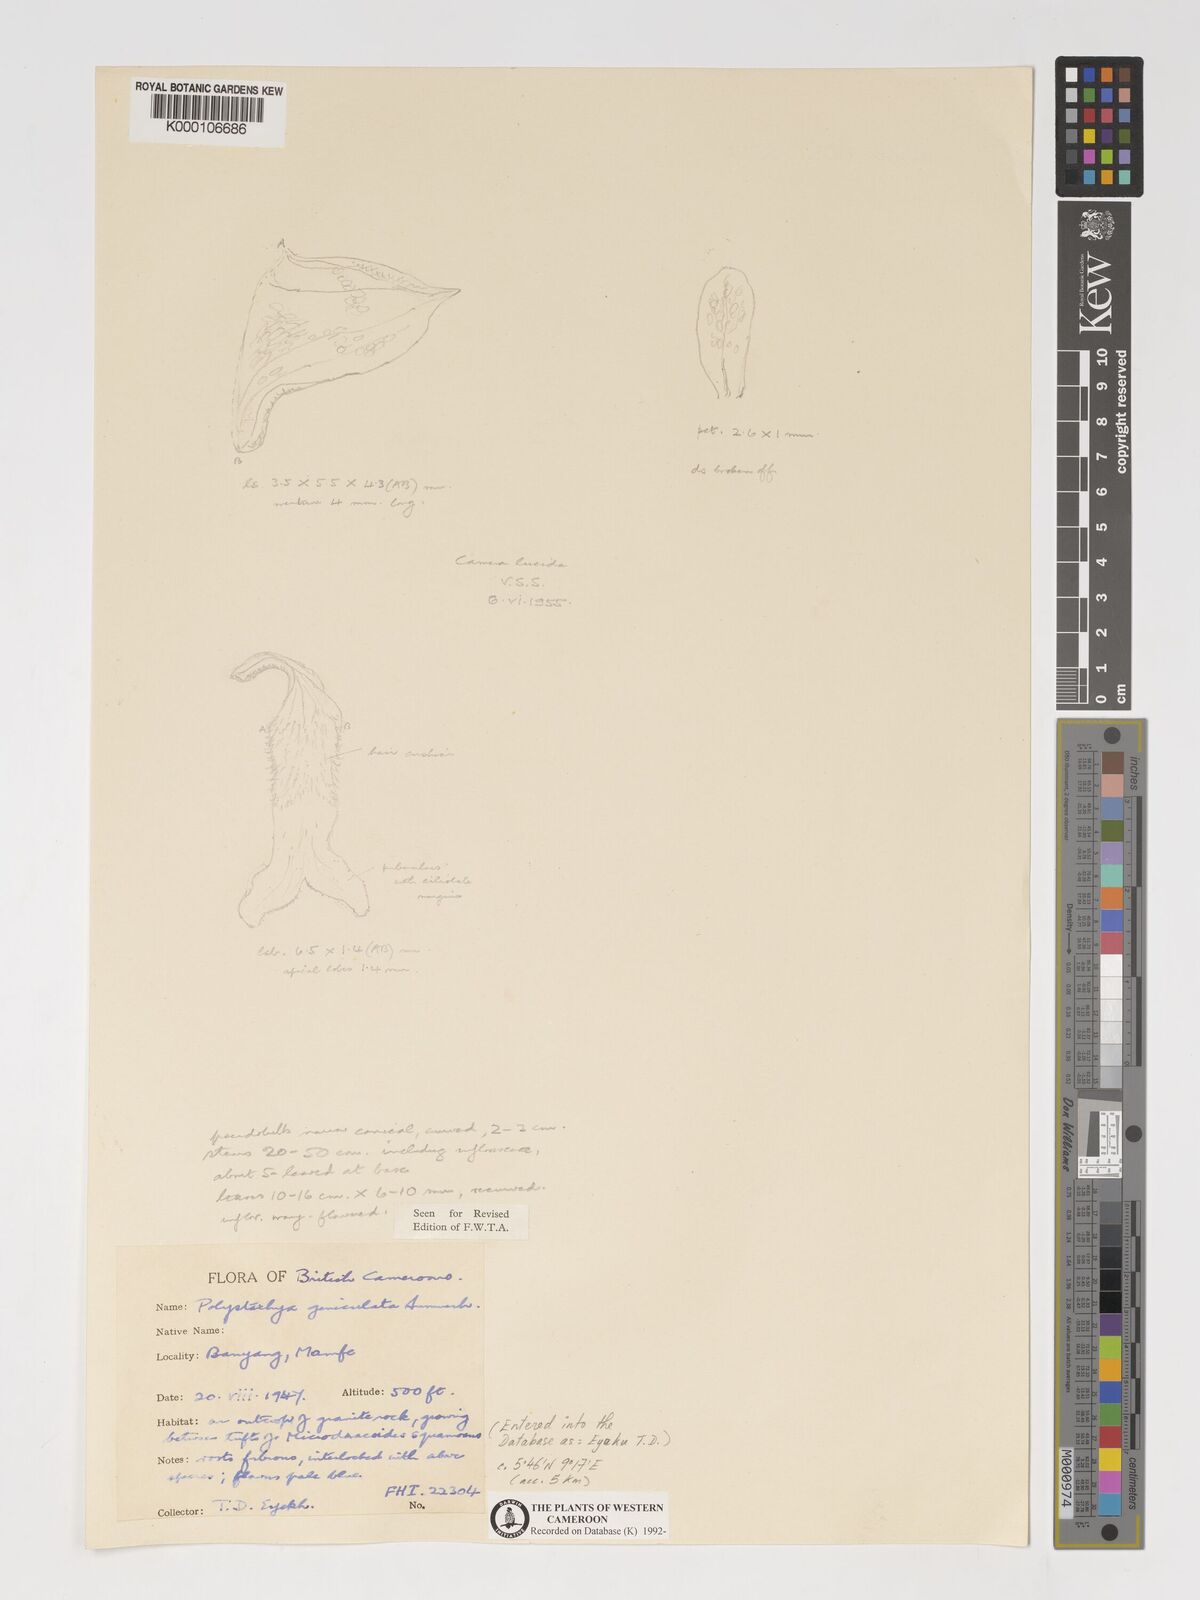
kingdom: Plantae
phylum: Tracheophyta
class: Liliopsida
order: Asparagales
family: Orchidaceae
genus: Polystachya
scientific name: Polystachya geniculata
